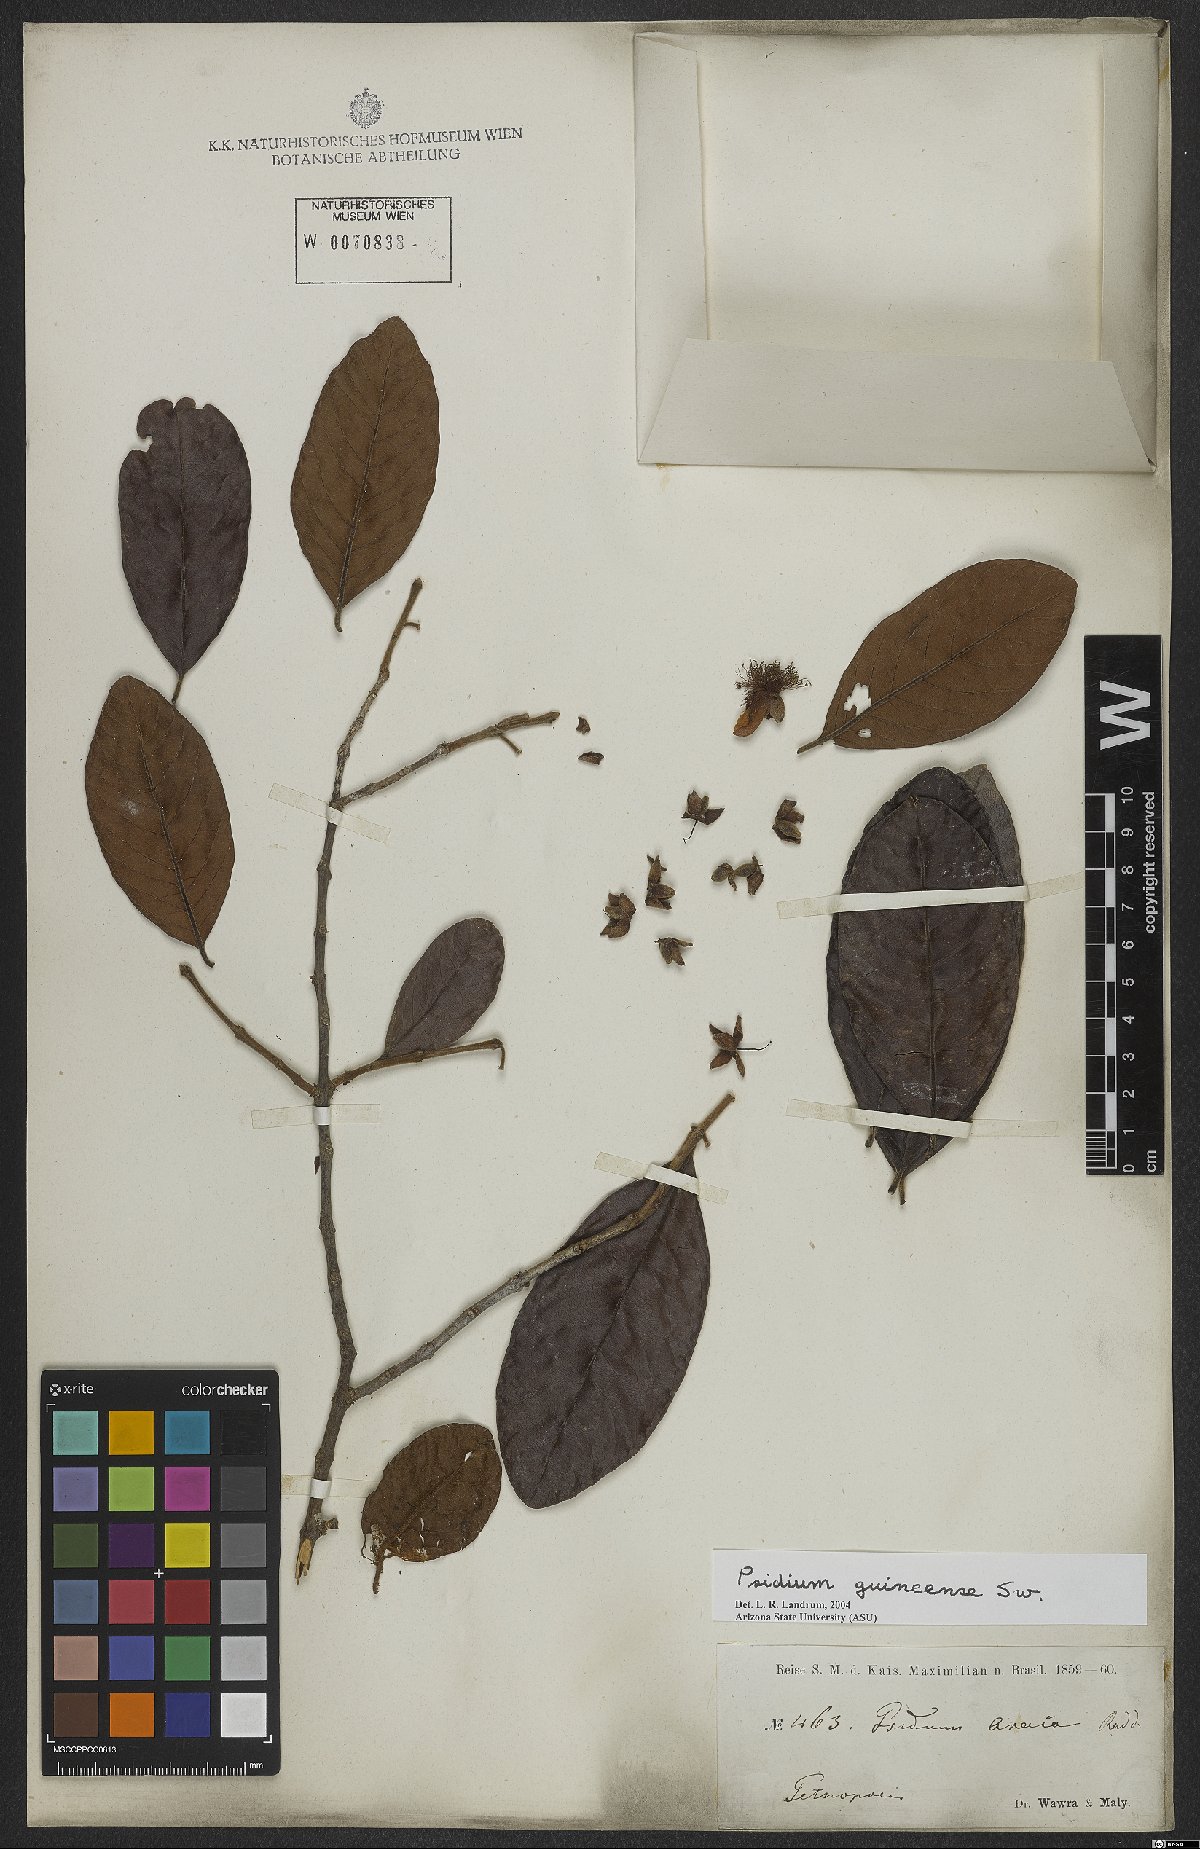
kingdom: Plantae
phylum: Tracheophyta
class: Magnoliopsida
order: Myrtales
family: Myrtaceae
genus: Psidium
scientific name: Psidium guineense
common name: Brazilian guava
